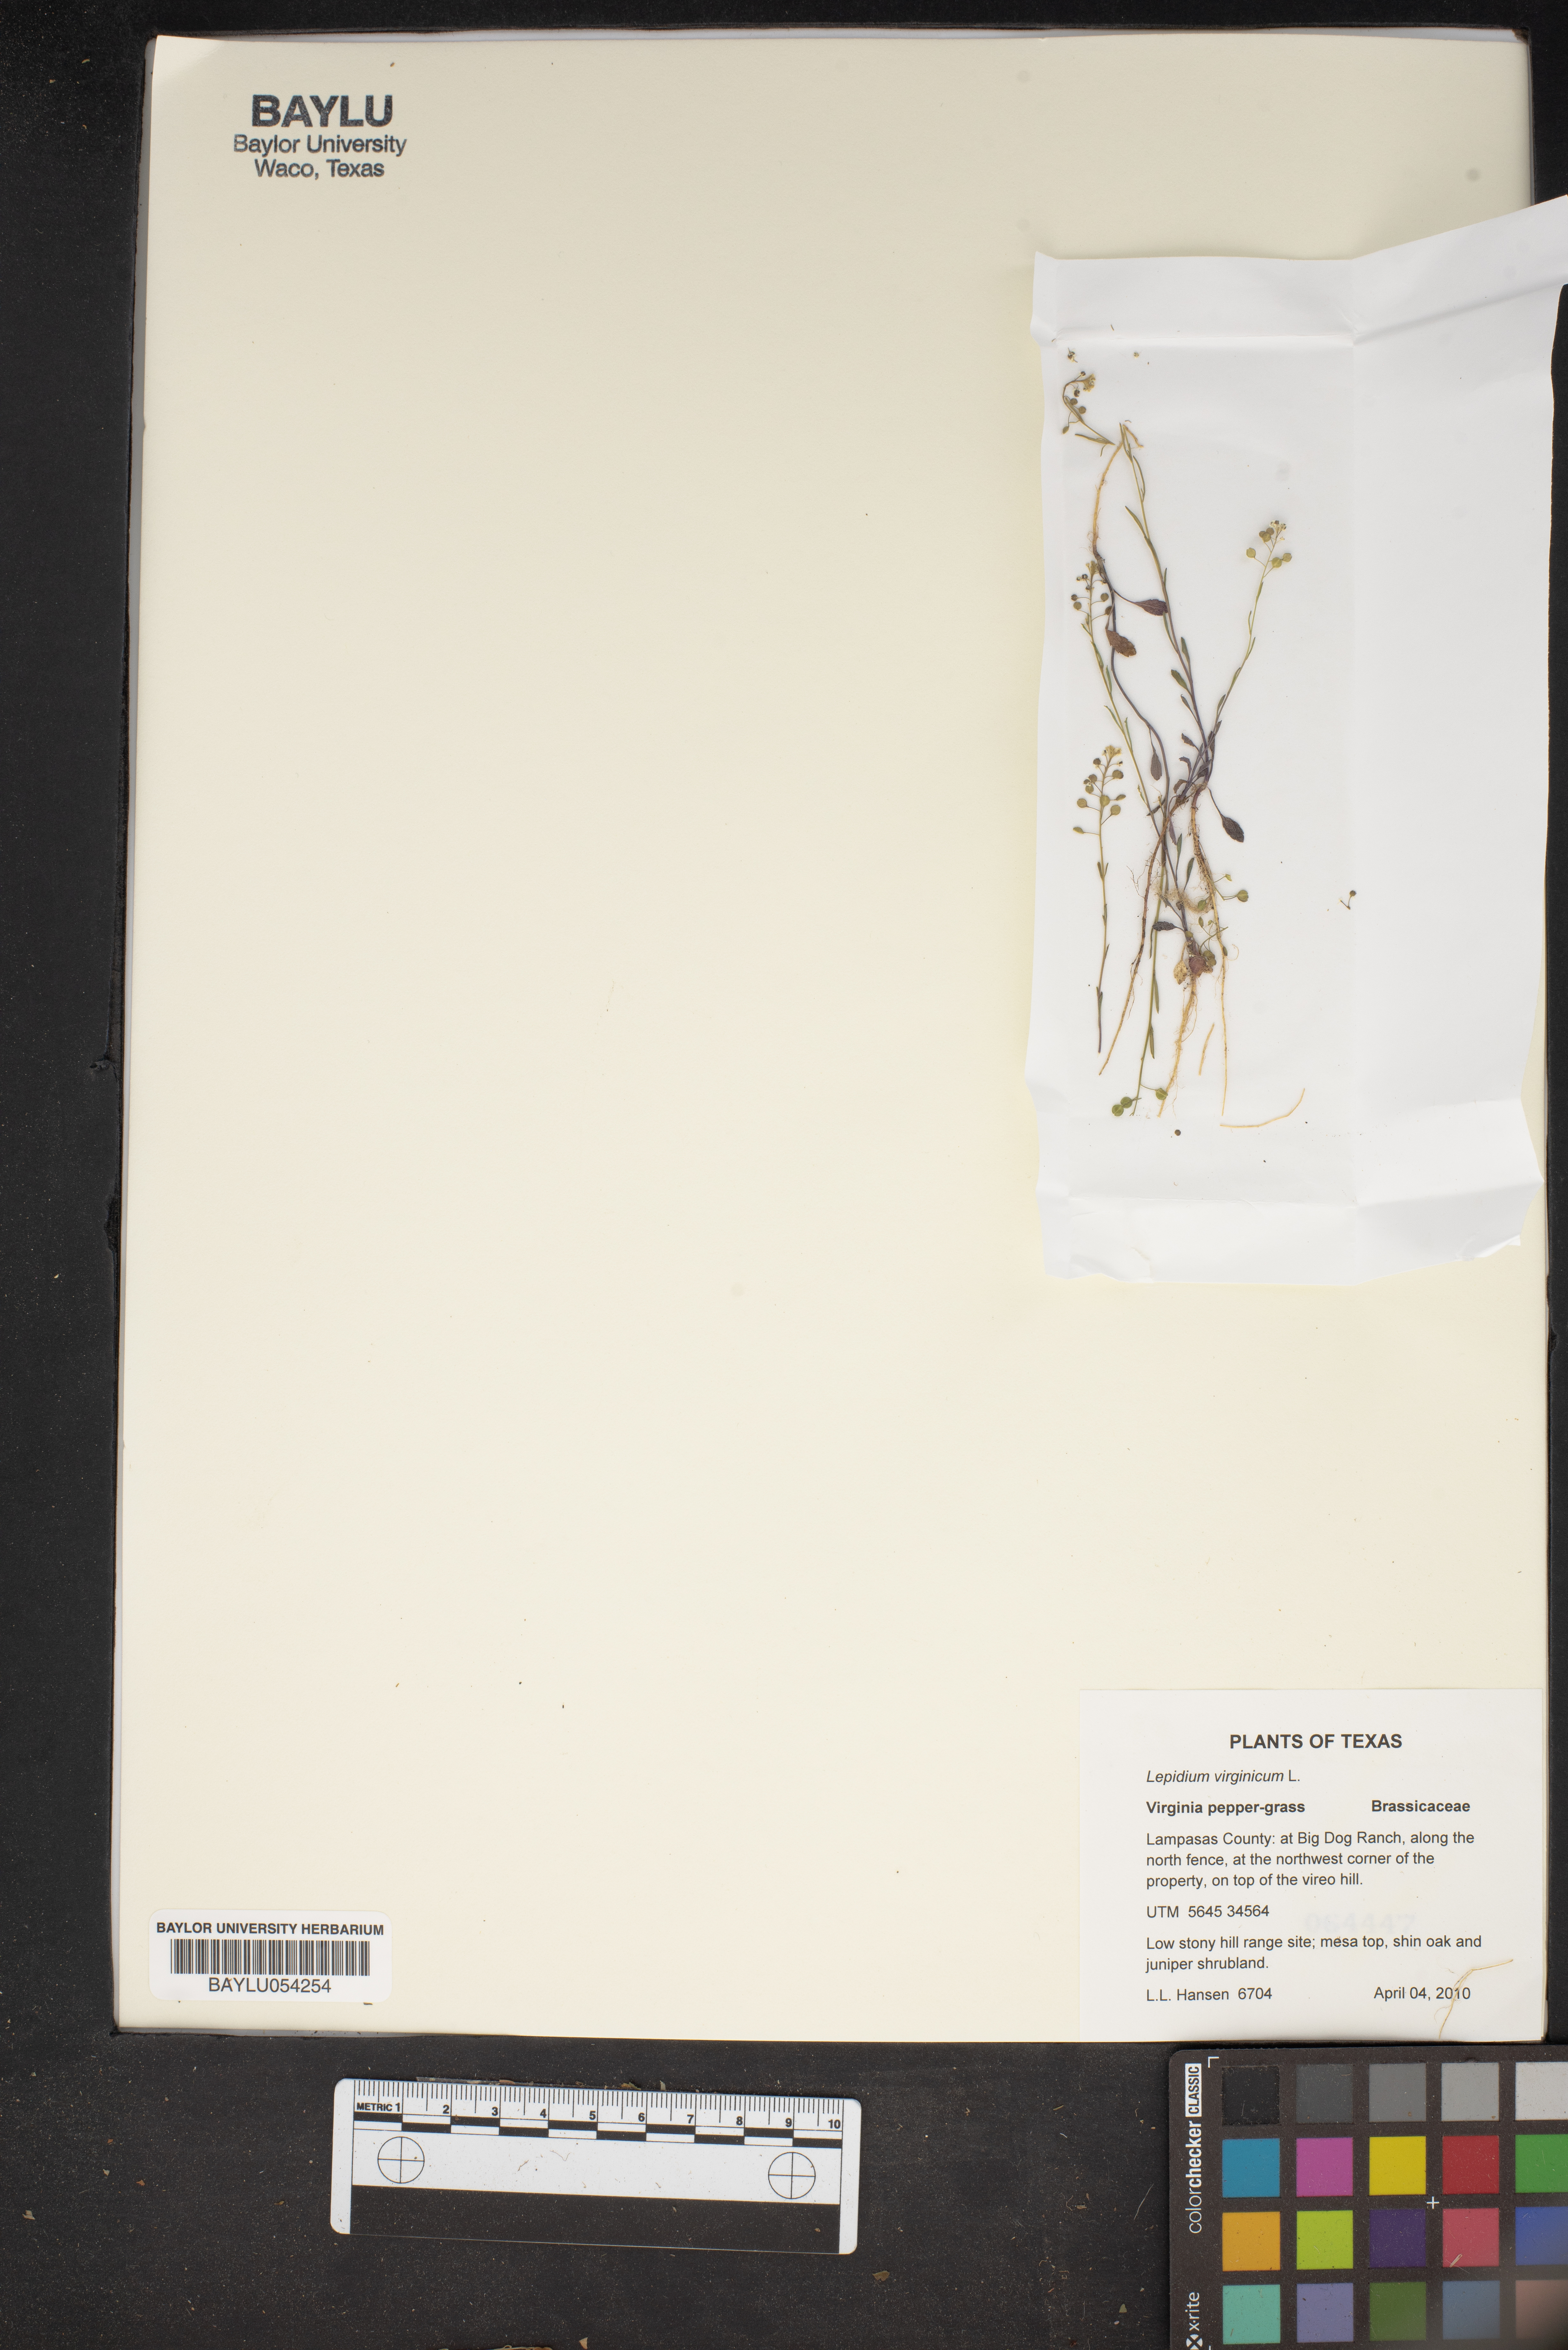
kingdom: Plantae
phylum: Tracheophyta
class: Magnoliopsida
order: Brassicales
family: Brassicaceae
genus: Lepidium
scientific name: Lepidium virginicum
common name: Least pepperwort
